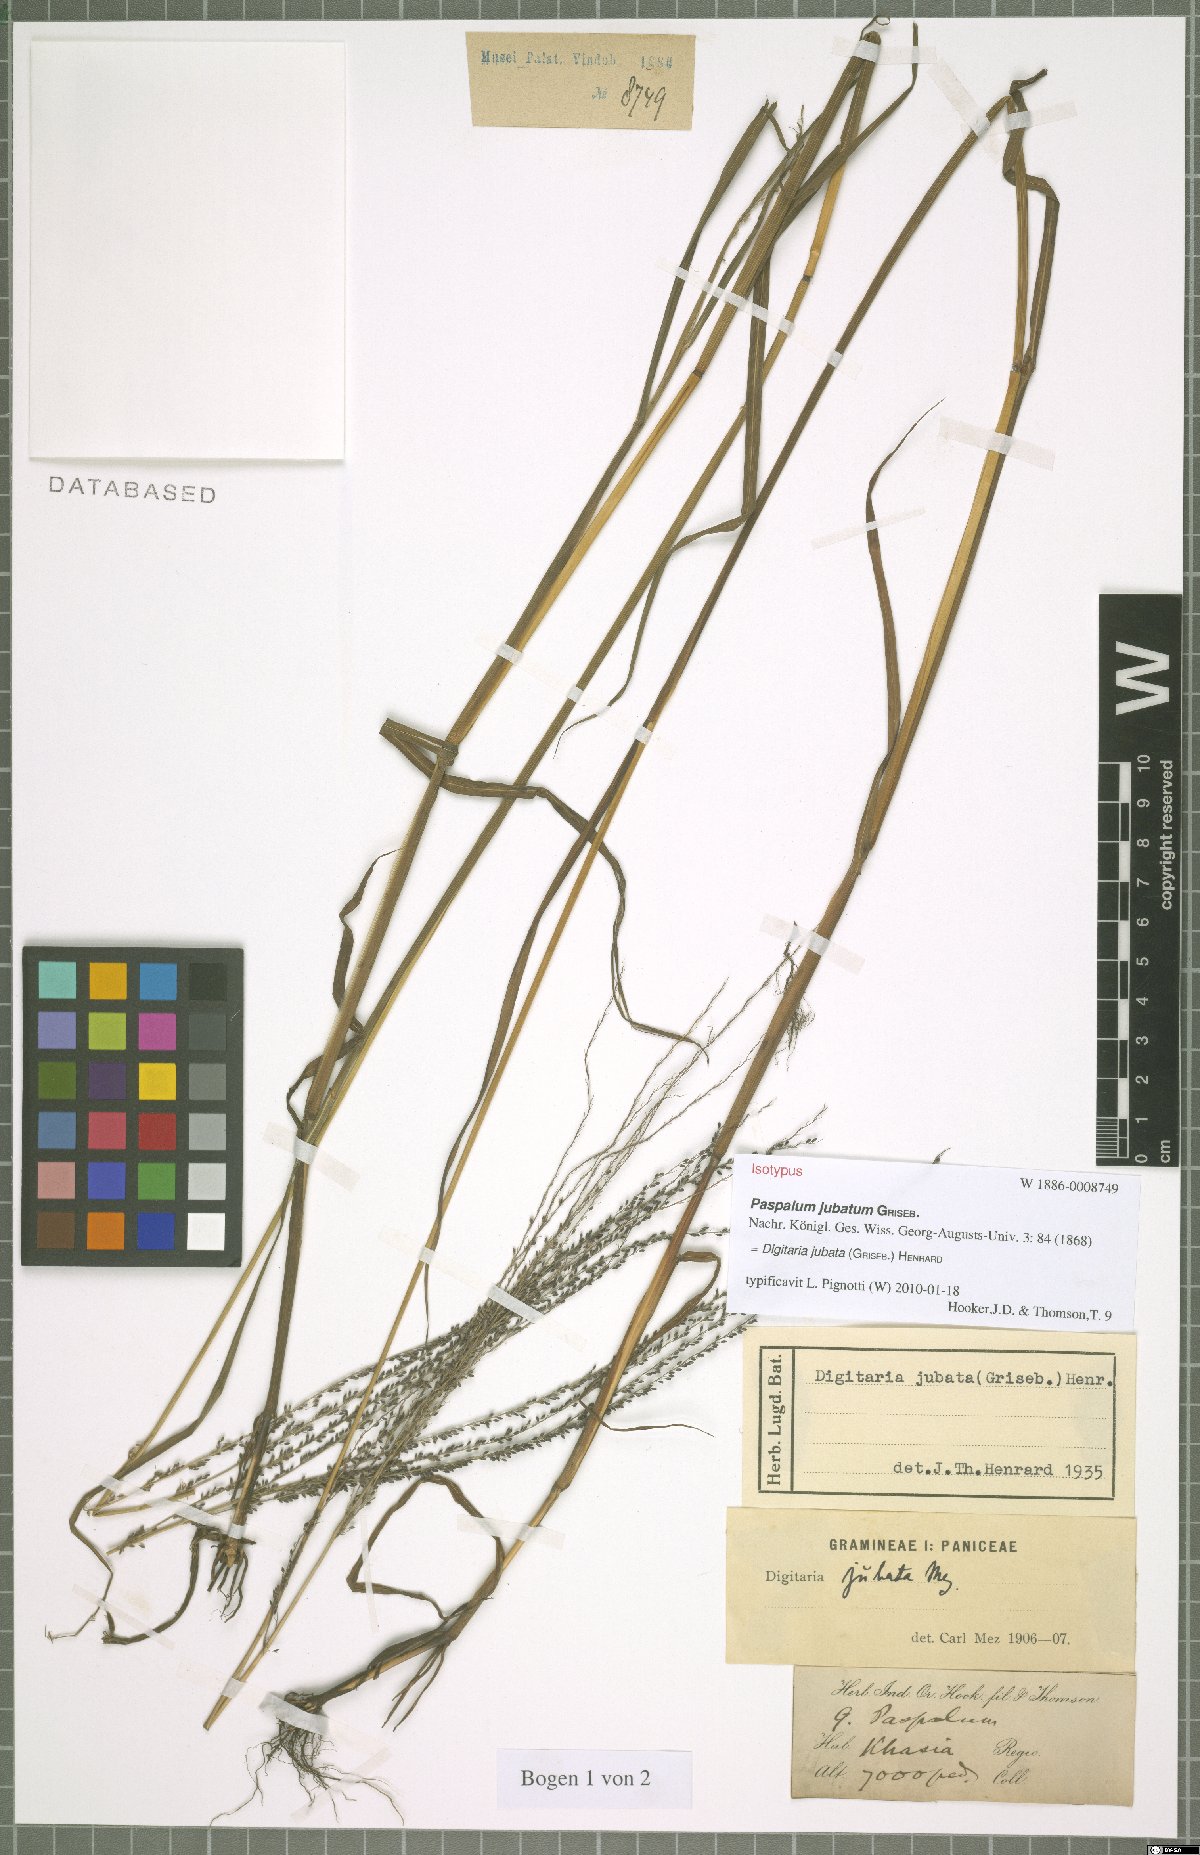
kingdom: Plantae
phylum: Tracheophyta
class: Liliopsida
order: Poales
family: Poaceae
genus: Digitaria
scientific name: Digitaria jubata
